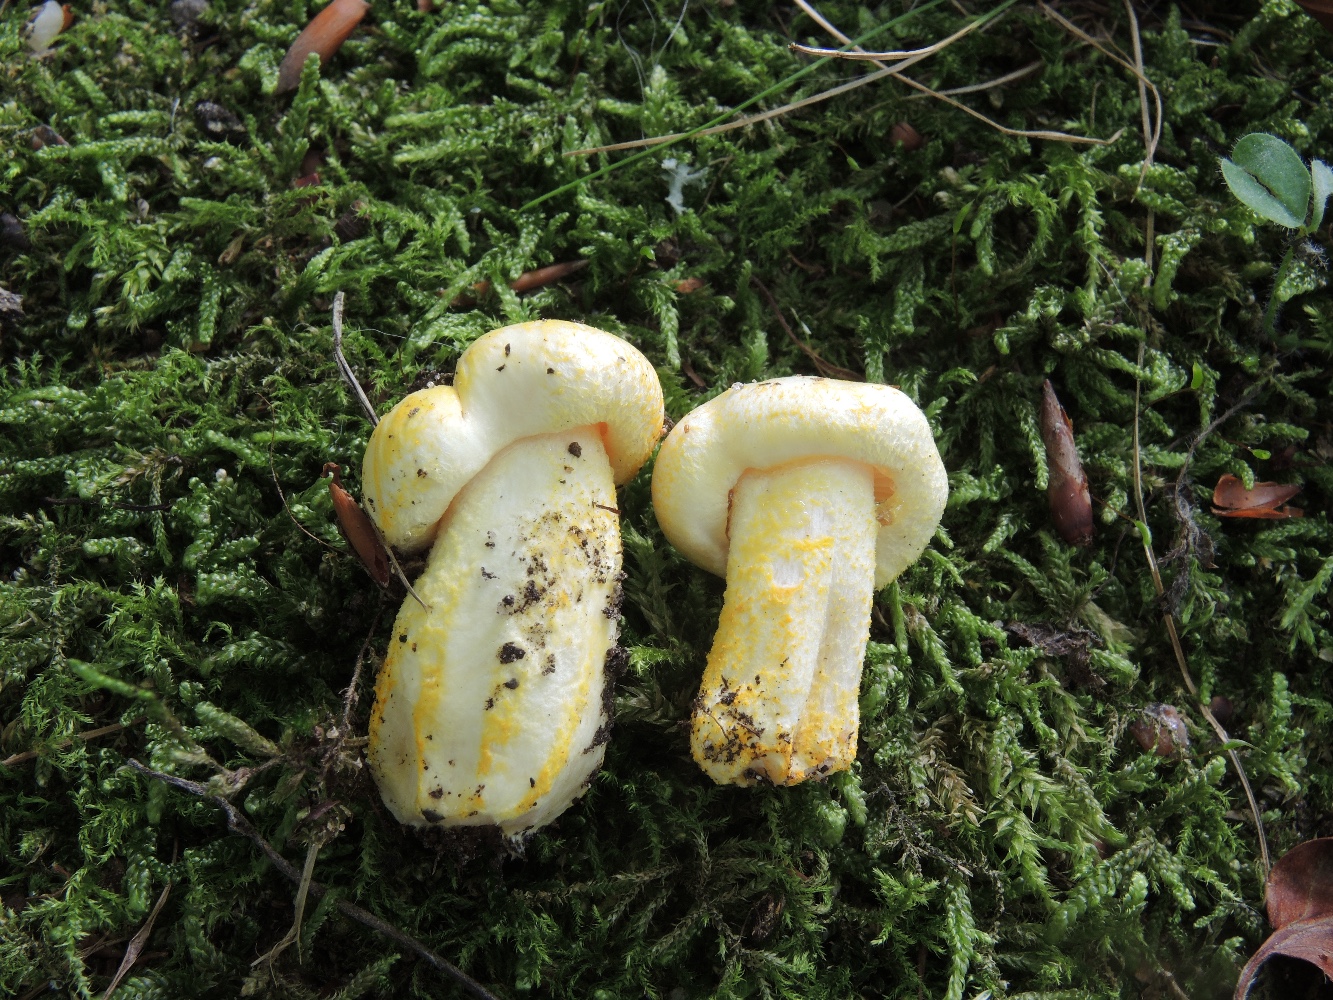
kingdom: Fungi
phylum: Basidiomycota
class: Agaricomycetes
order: Agaricales
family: Hygrophoraceae
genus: Hygrophorus
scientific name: Hygrophorus chrysodon
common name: gulfnugget sneglehat
